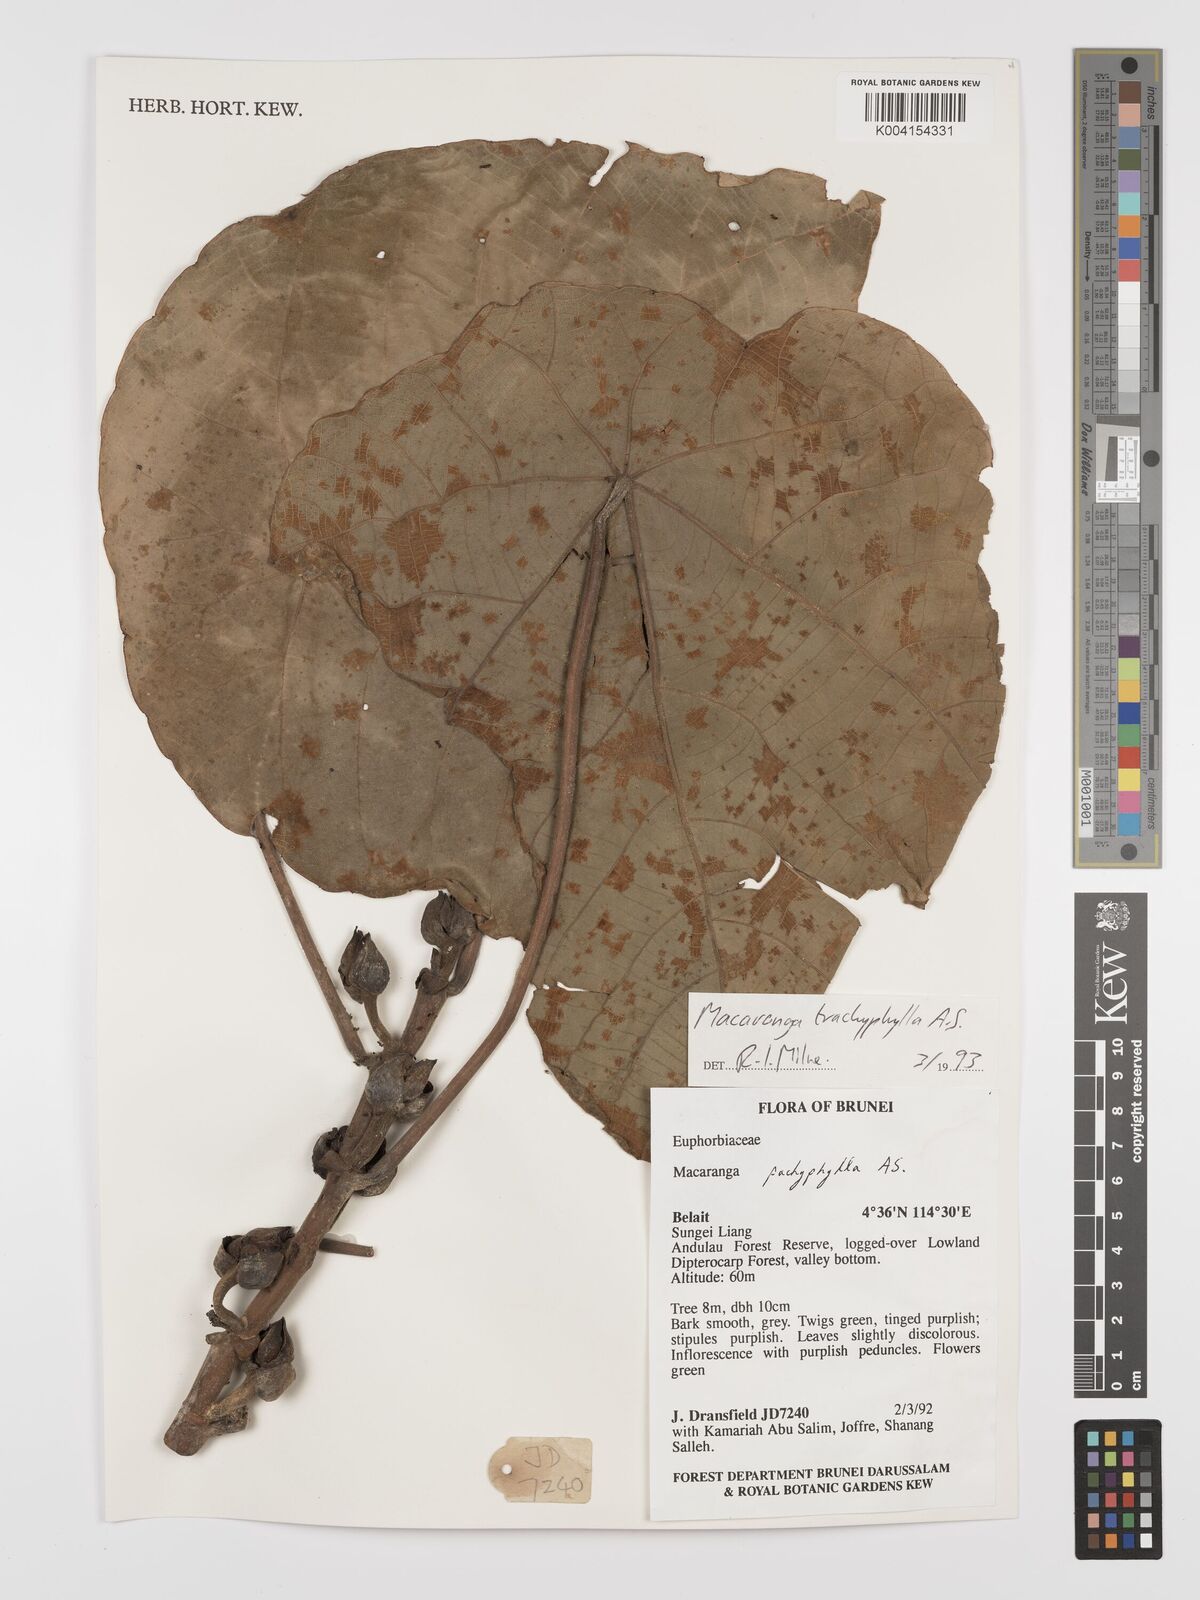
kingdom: Plantae
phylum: Tracheophyta
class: Magnoliopsida
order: Malpighiales
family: Euphorbiaceae
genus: Macaranga
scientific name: Macaranga trachyphylla
